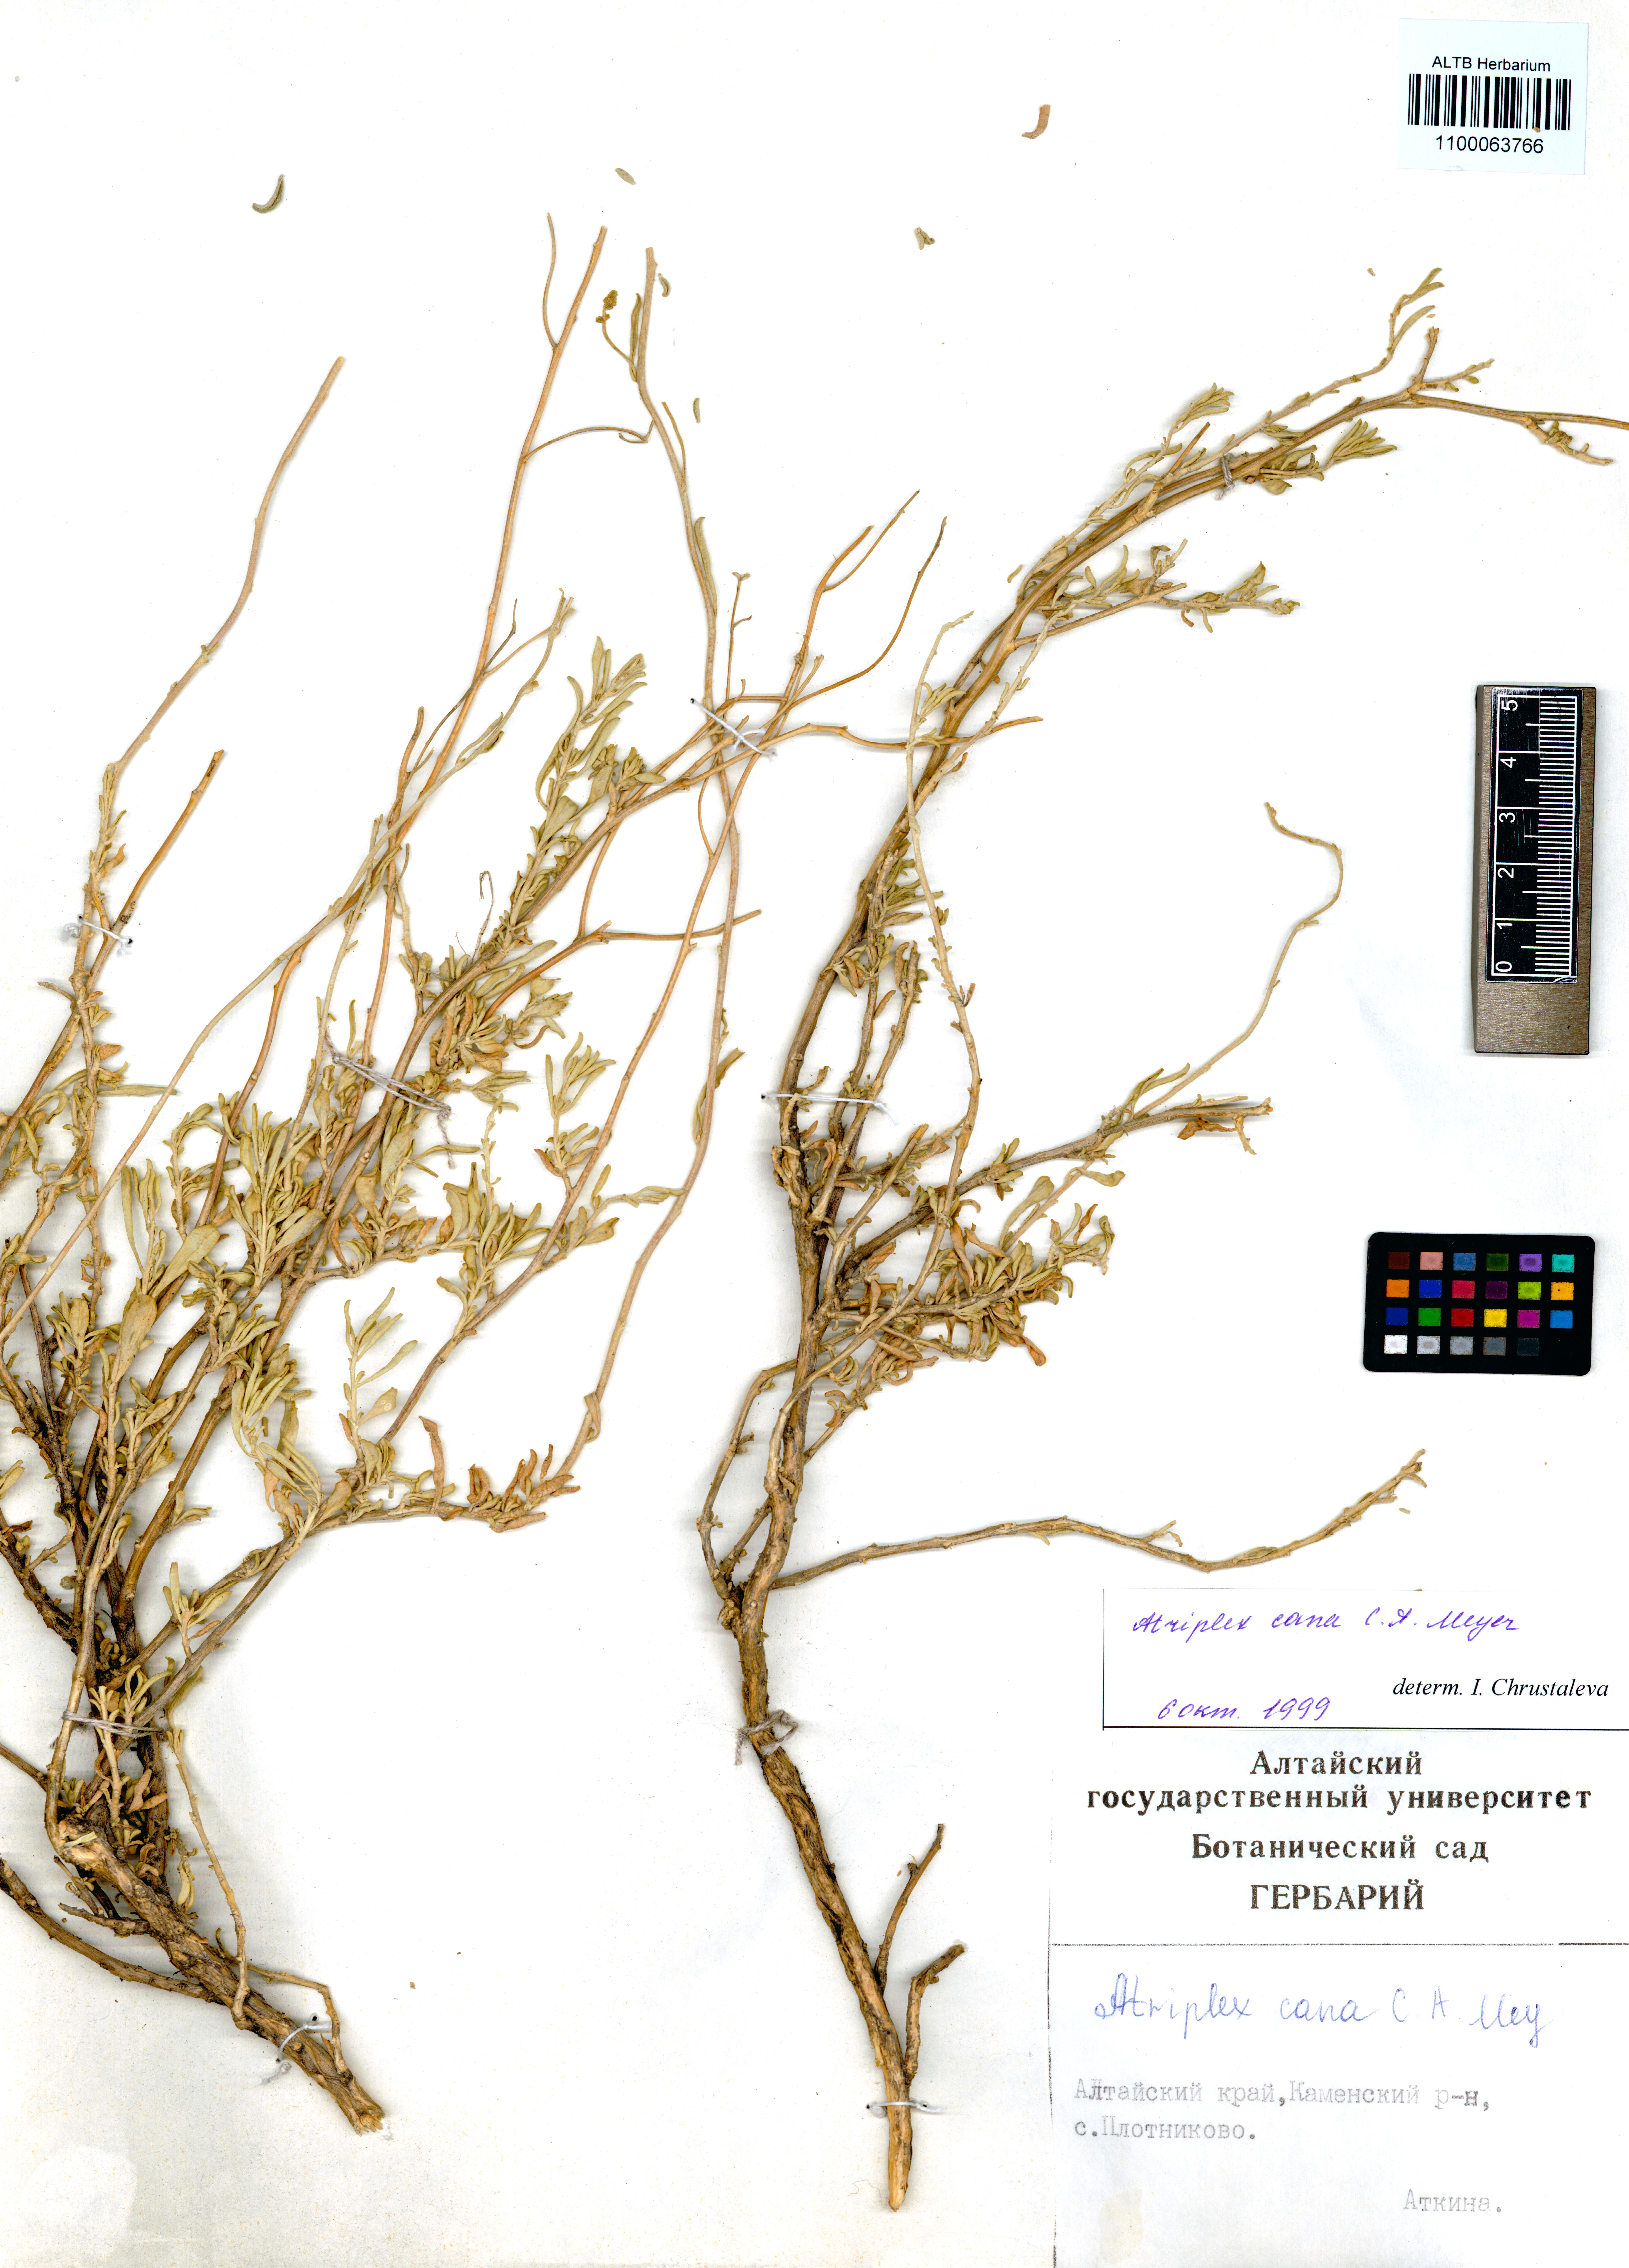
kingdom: Plantae
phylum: Tracheophyta
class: Magnoliopsida
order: Caryophyllales
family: Amaranthaceae
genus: Atriplex
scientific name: Atriplex cana
